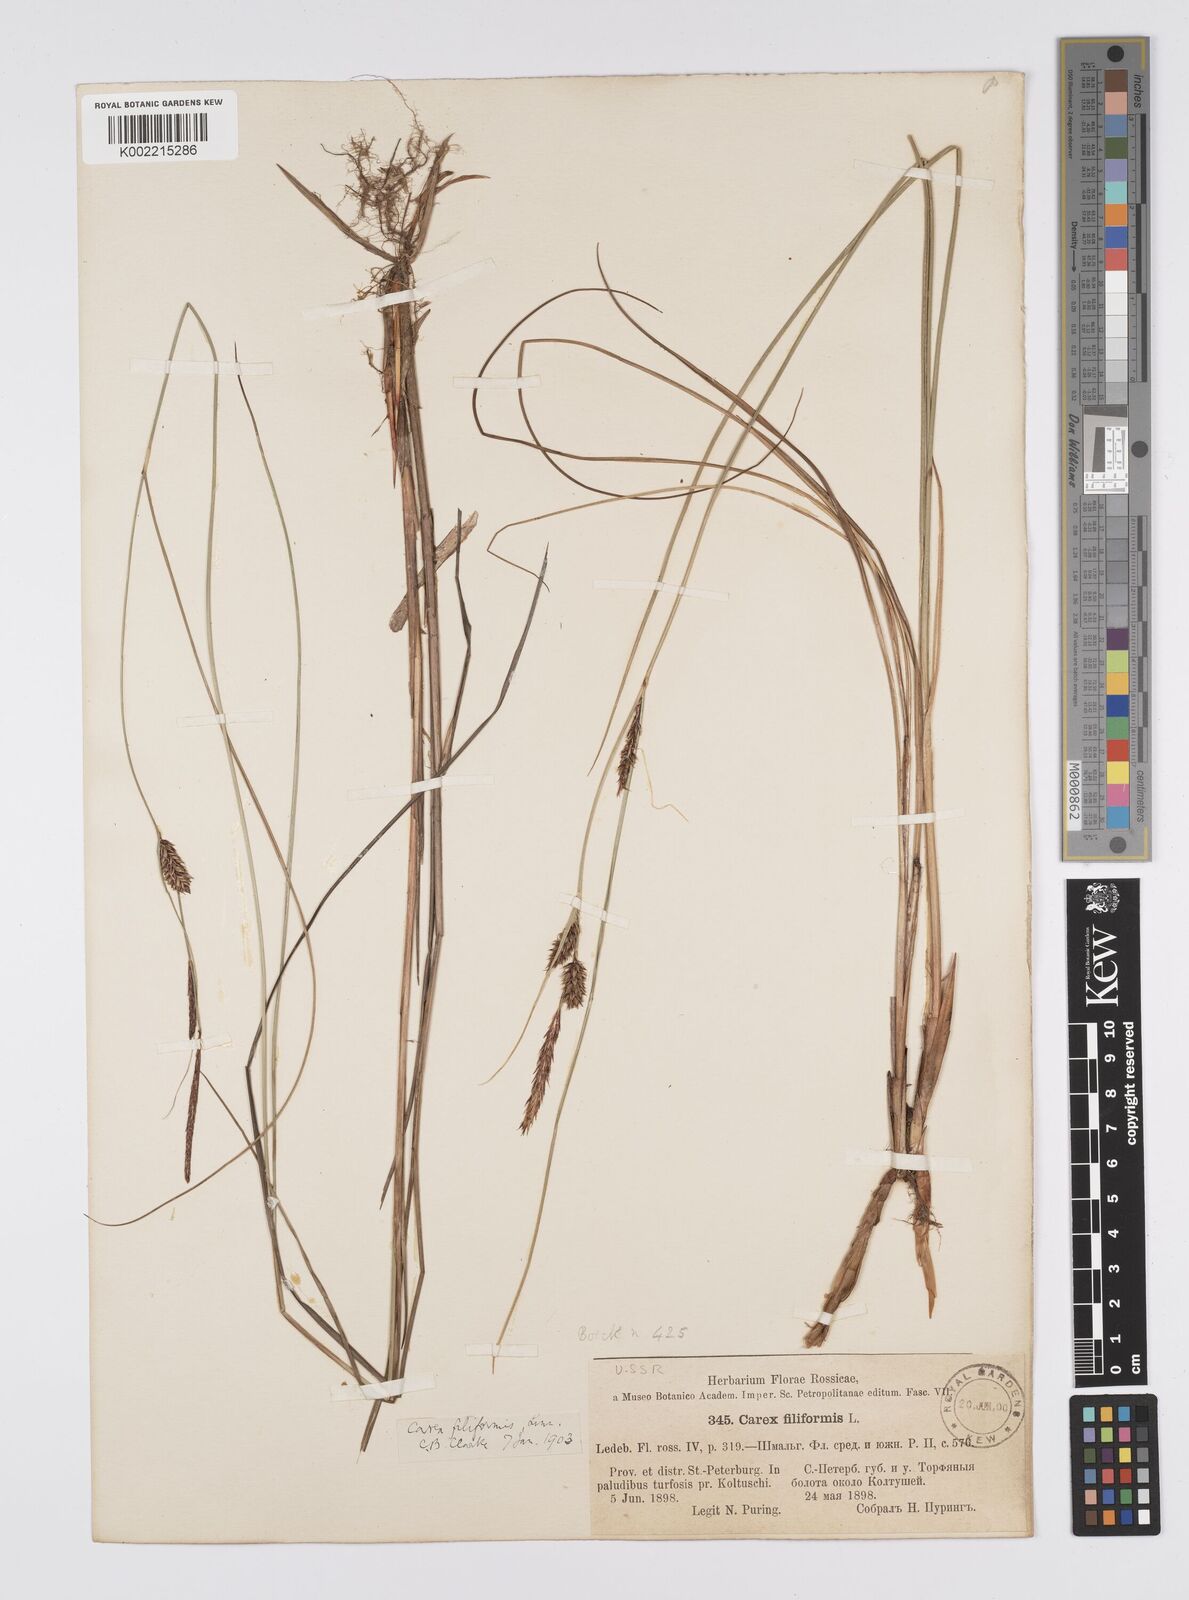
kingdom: Plantae
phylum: Tracheophyta
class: Liliopsida
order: Poales
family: Cyperaceae
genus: Carex
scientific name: Carex lasiocarpa
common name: Slender sedge
